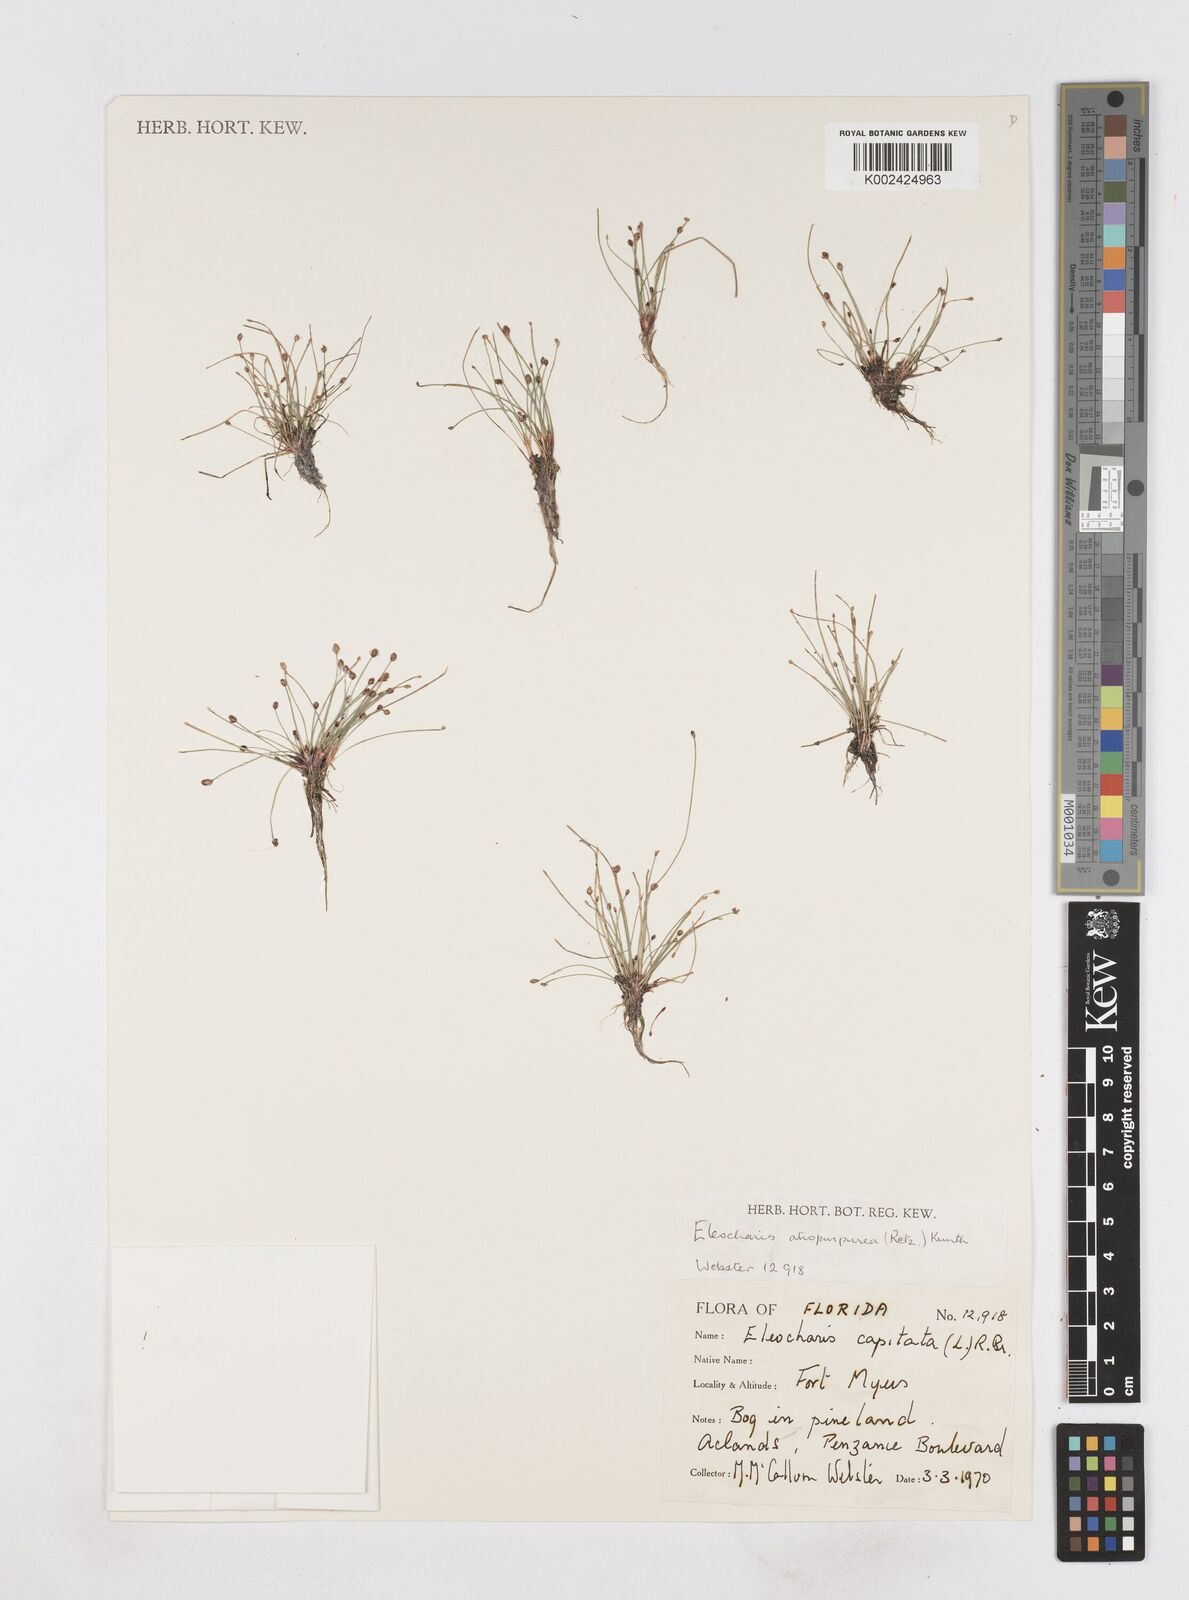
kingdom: Plantae
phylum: Tracheophyta
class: Liliopsida
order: Poales
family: Cyperaceae
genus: Eleocharis
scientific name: Eleocharis atropurpurea
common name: Purple spikerush
